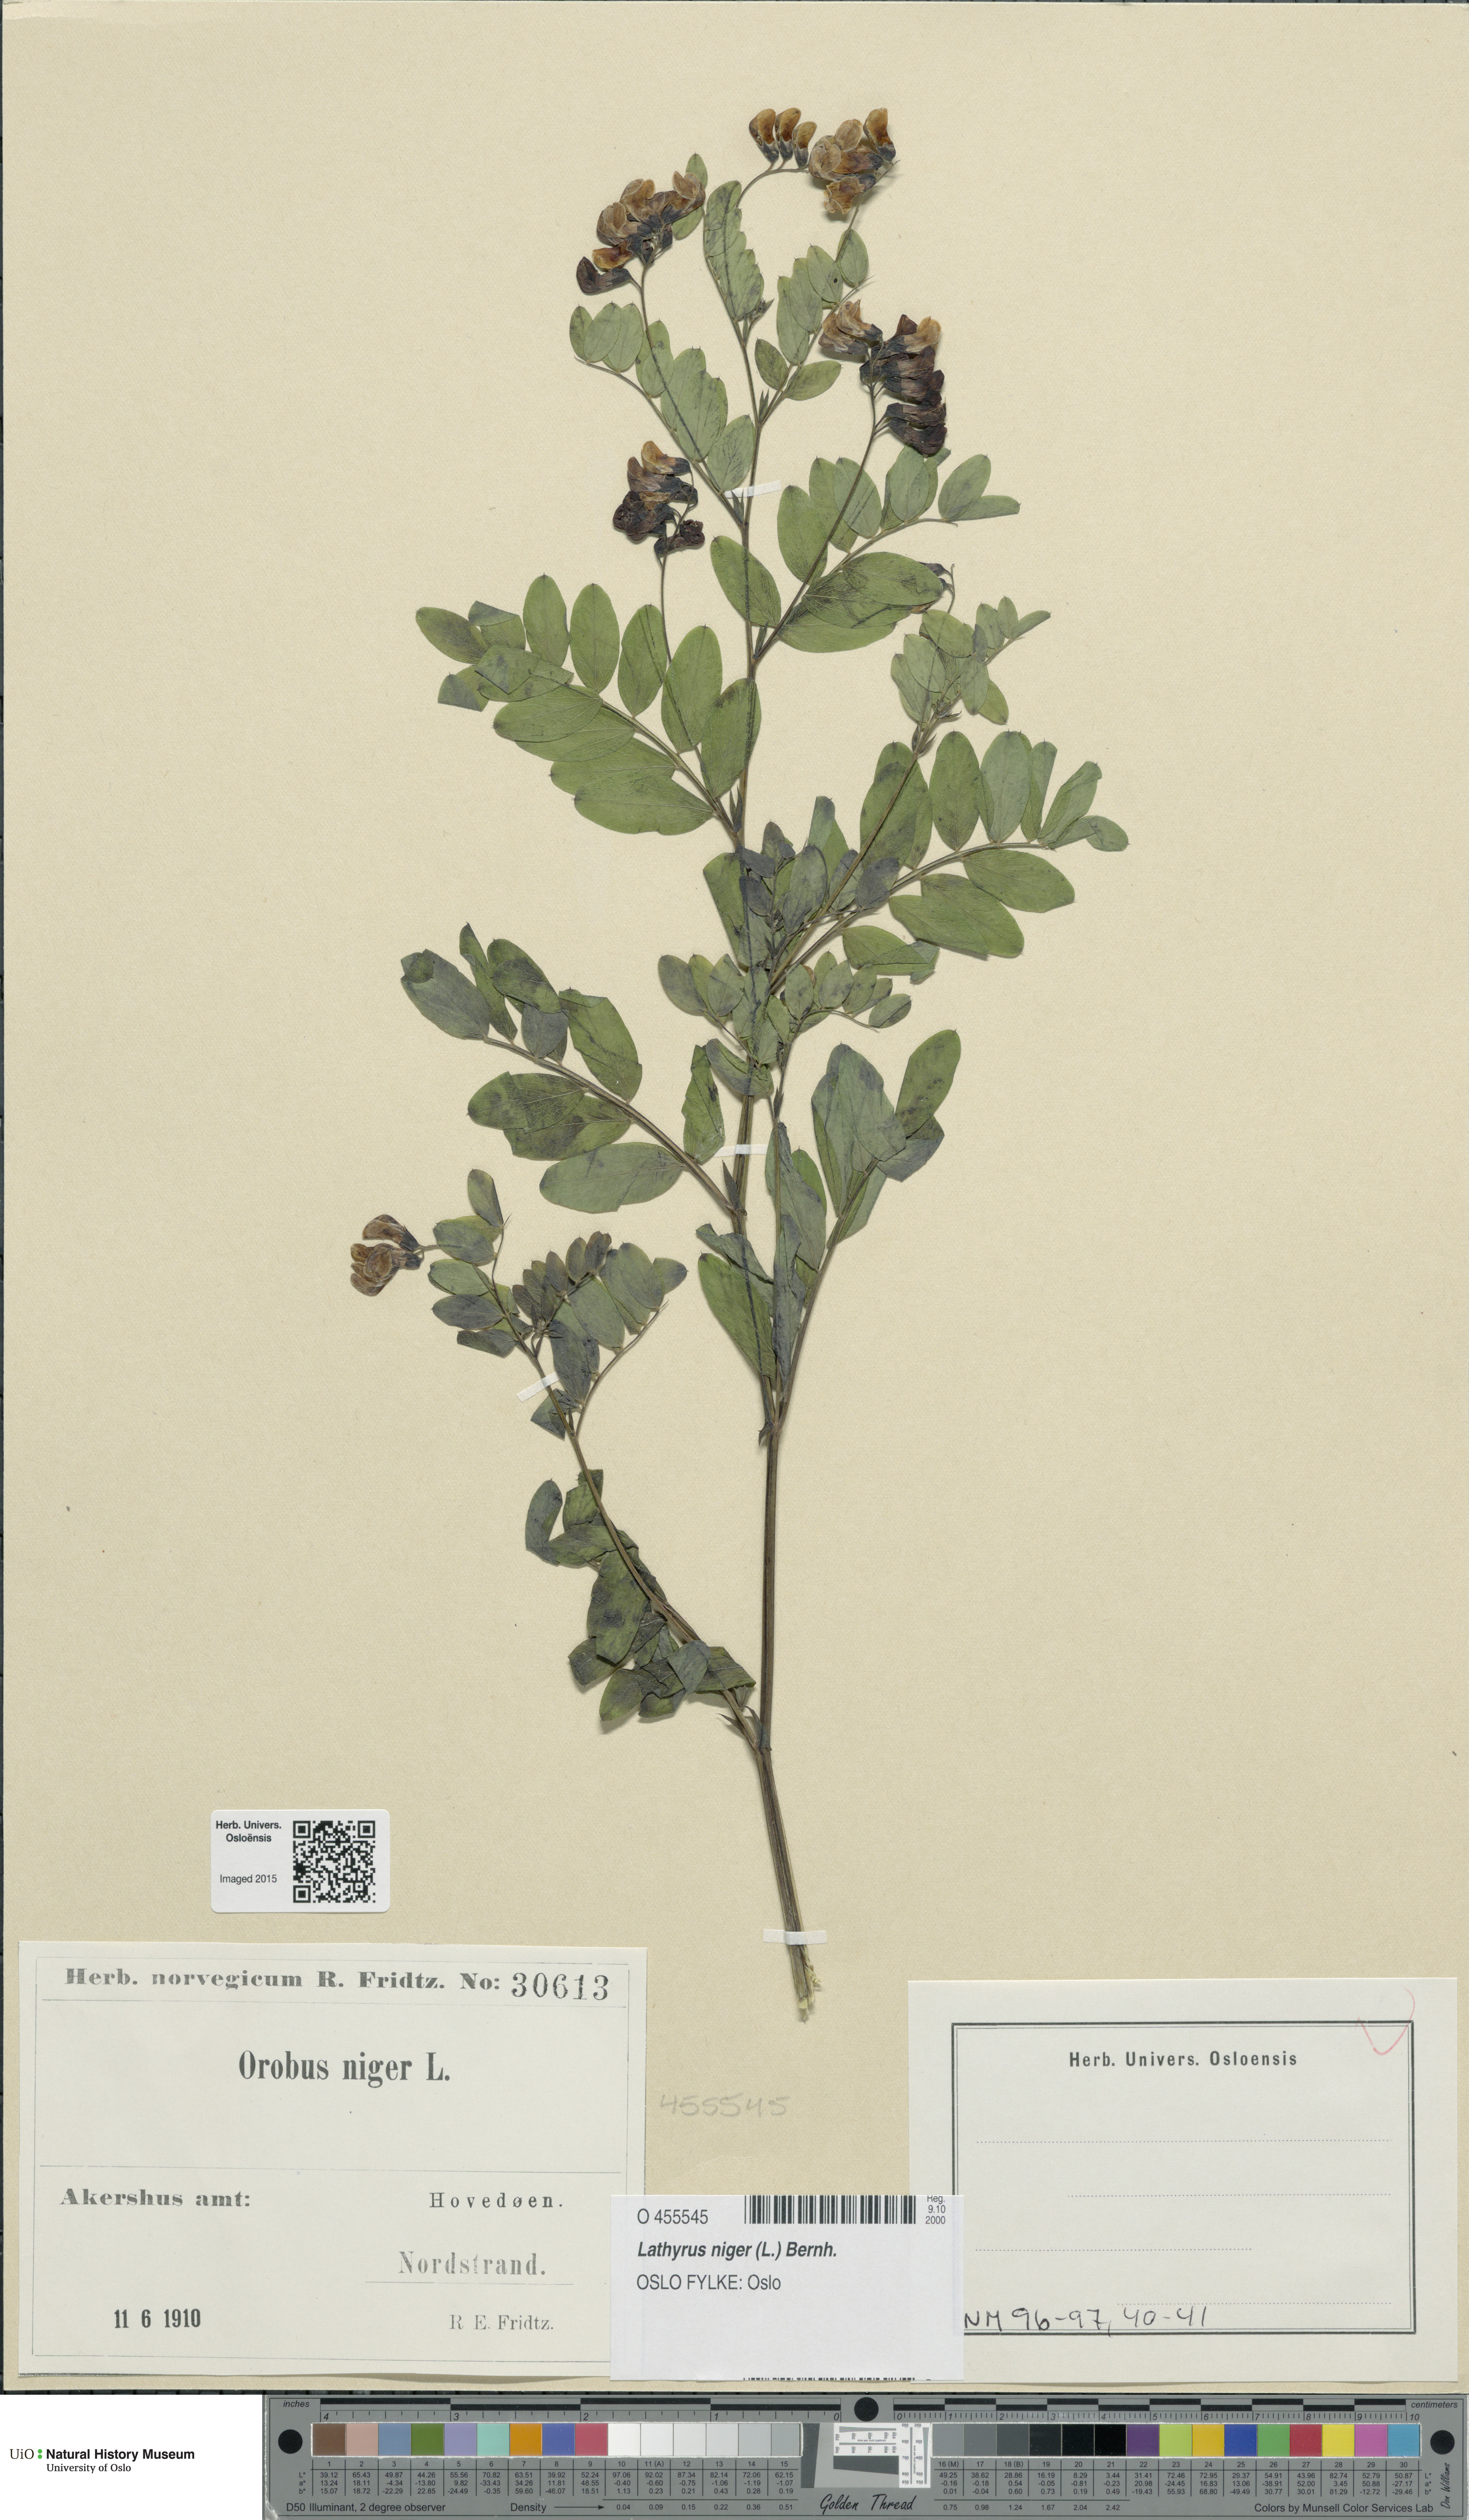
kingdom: Plantae
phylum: Tracheophyta
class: Magnoliopsida
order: Fabales
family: Fabaceae
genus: Lathyrus
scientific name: Lathyrus niger
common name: Black pea
